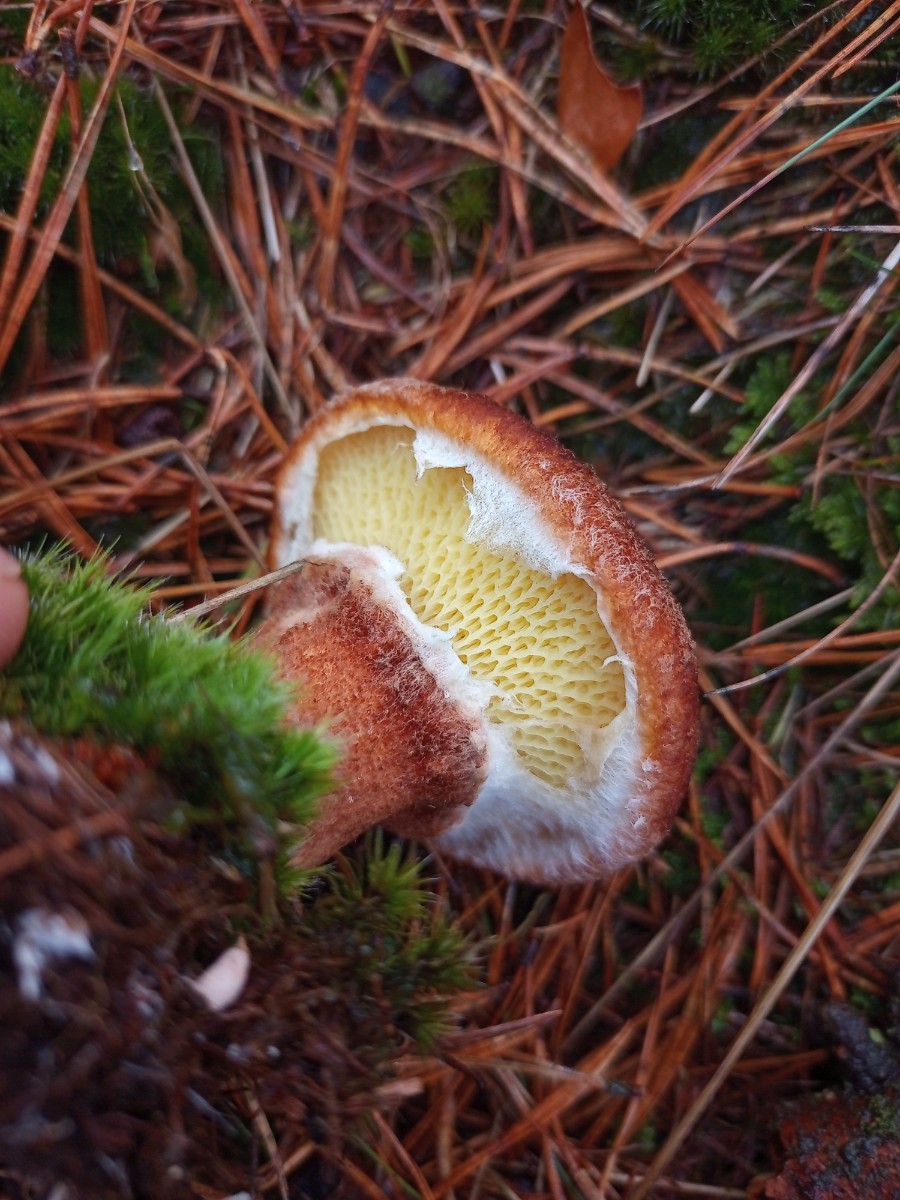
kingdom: Fungi
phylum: Basidiomycota
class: Agaricomycetes
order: Boletales
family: Suillaceae
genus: Suillus
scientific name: Suillus cavipes
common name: hulstokket slimrørhat
